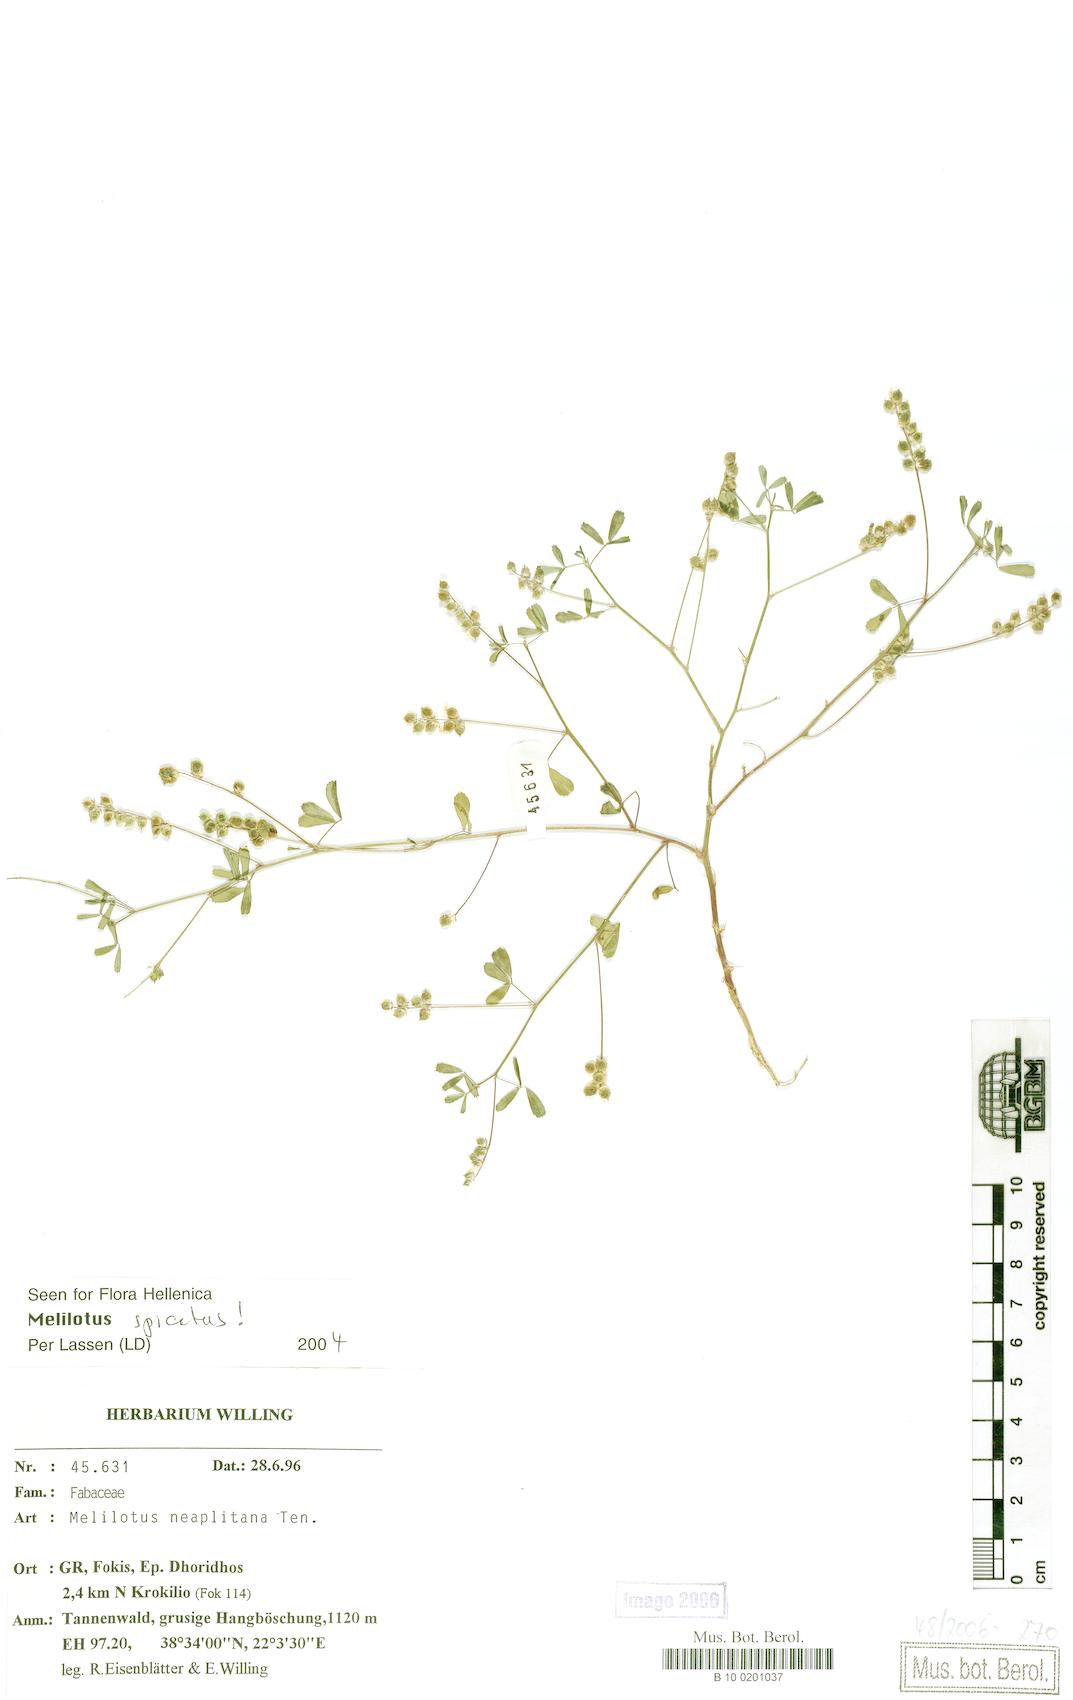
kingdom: Plantae
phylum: Tracheophyta
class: Magnoliopsida
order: Fabales
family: Fabaceae
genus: Melilotus
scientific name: Melilotus neapolitanus
